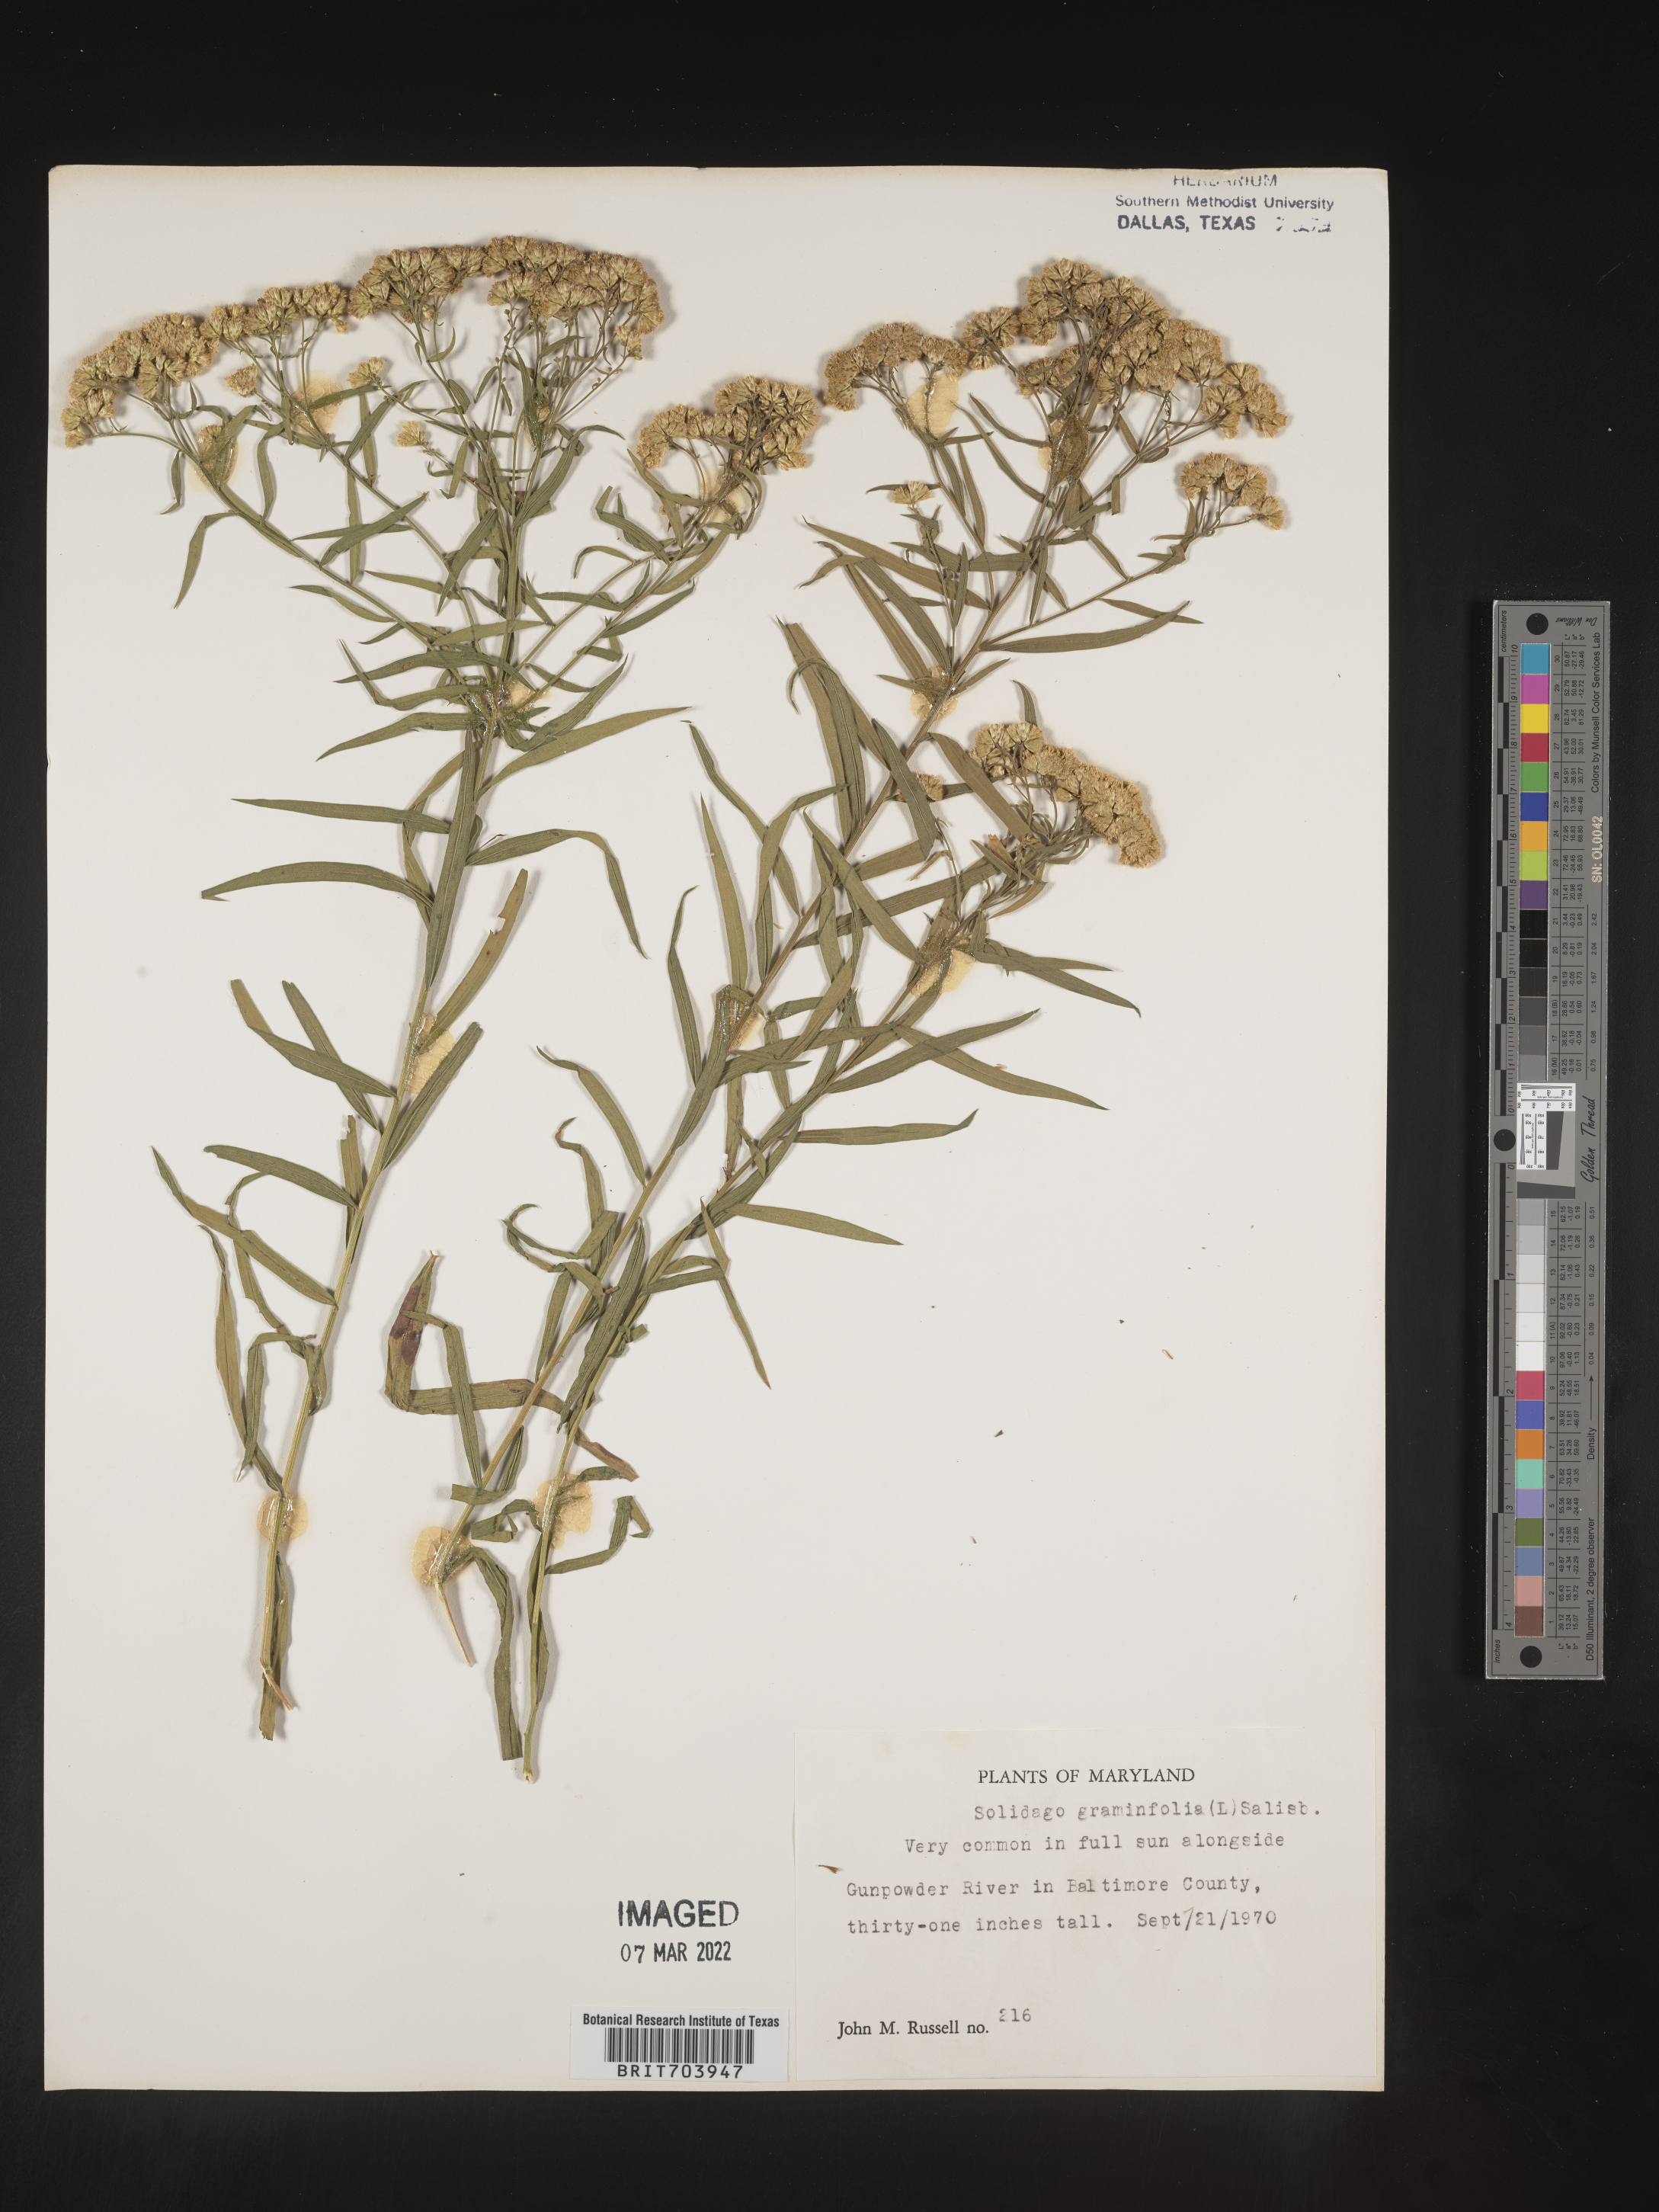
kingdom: Plantae
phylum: Tracheophyta
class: Magnoliopsida
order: Asterales
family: Asteraceae
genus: Euthamia
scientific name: Euthamia graminifolia
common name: Common goldentop
